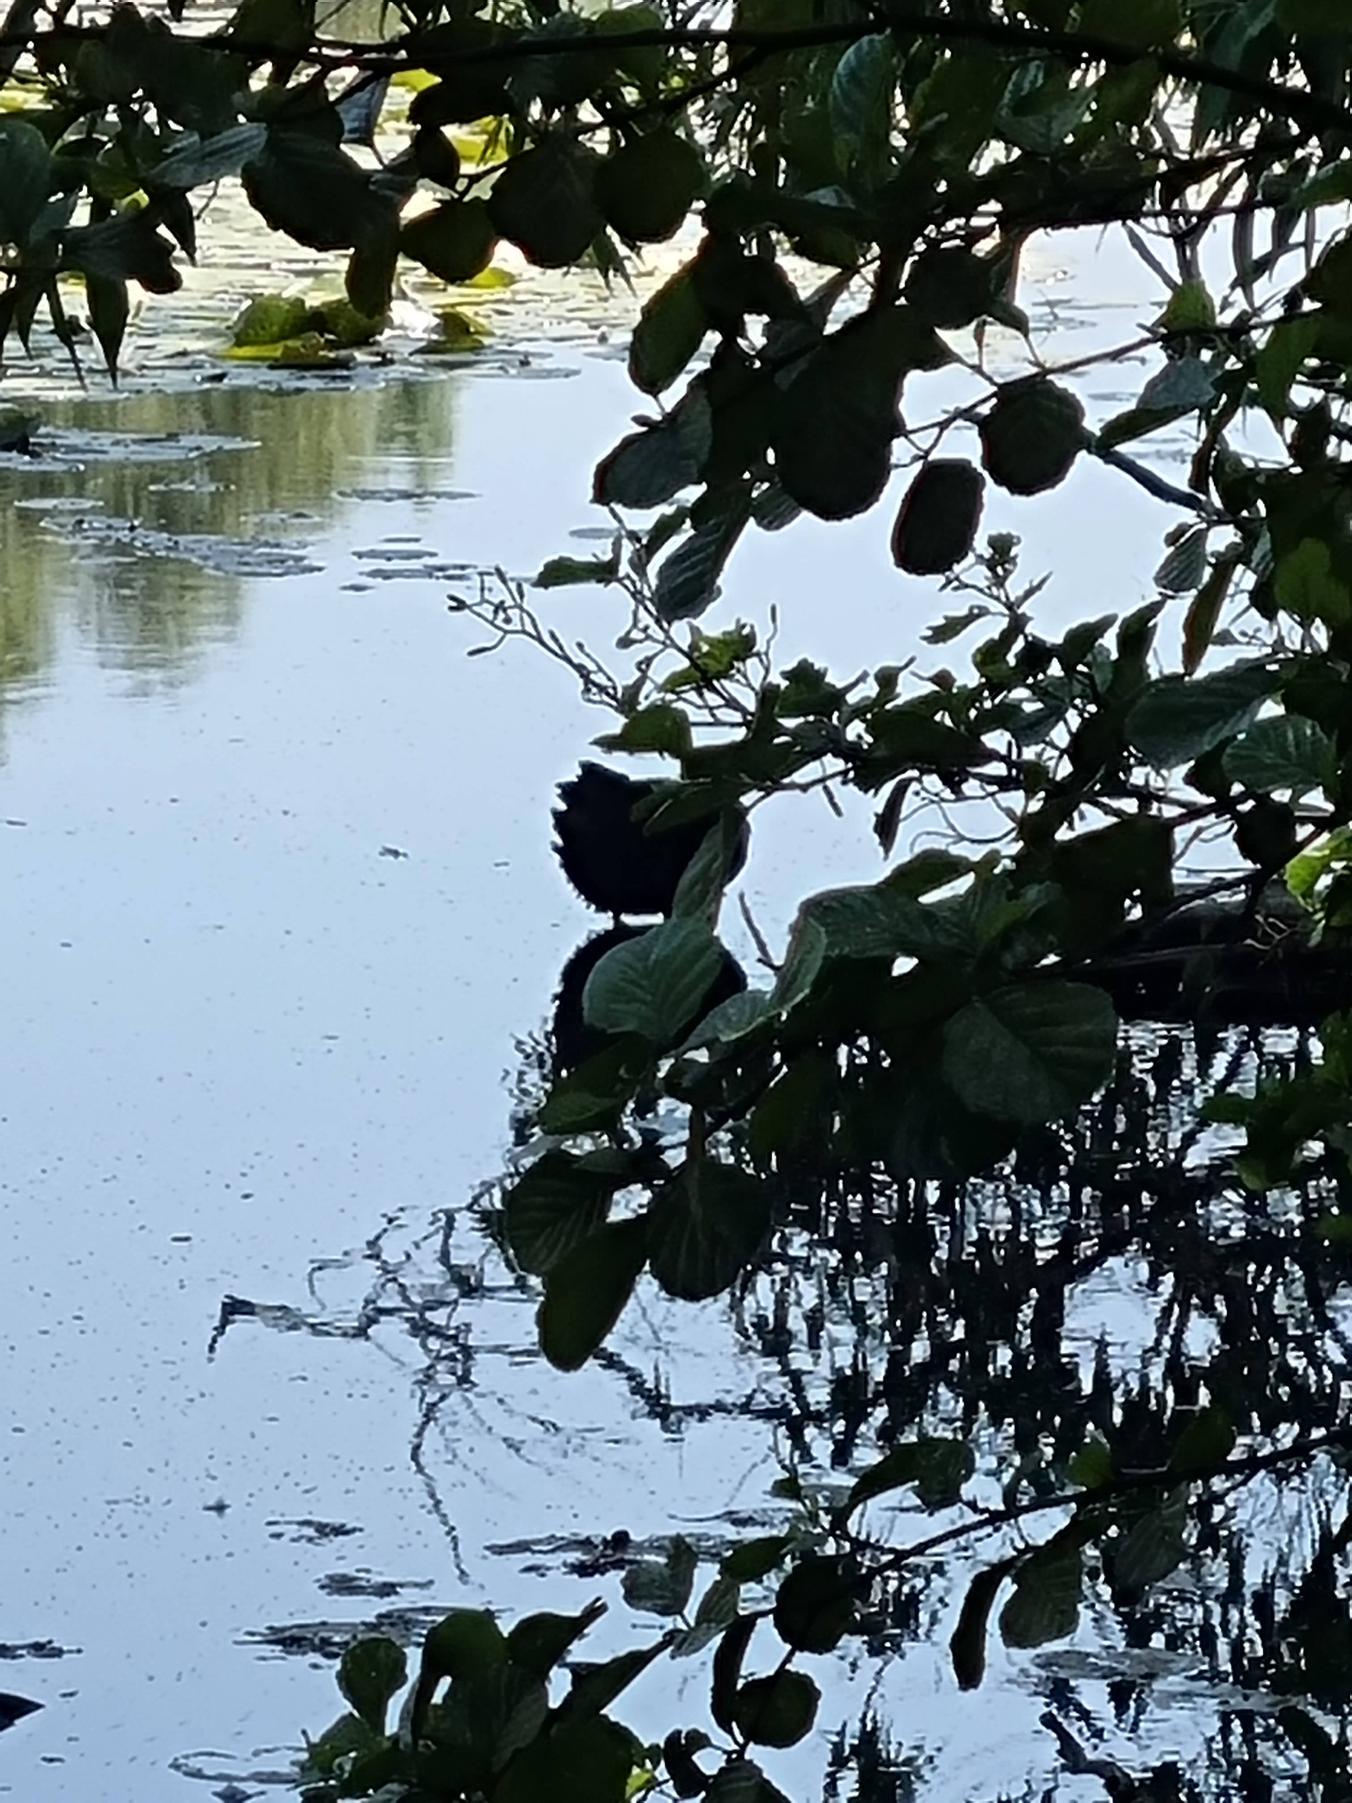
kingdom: Animalia
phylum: Chordata
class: Aves
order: Gruiformes
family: Rallidae
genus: Fulica
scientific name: Fulica atra
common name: Blishøne
